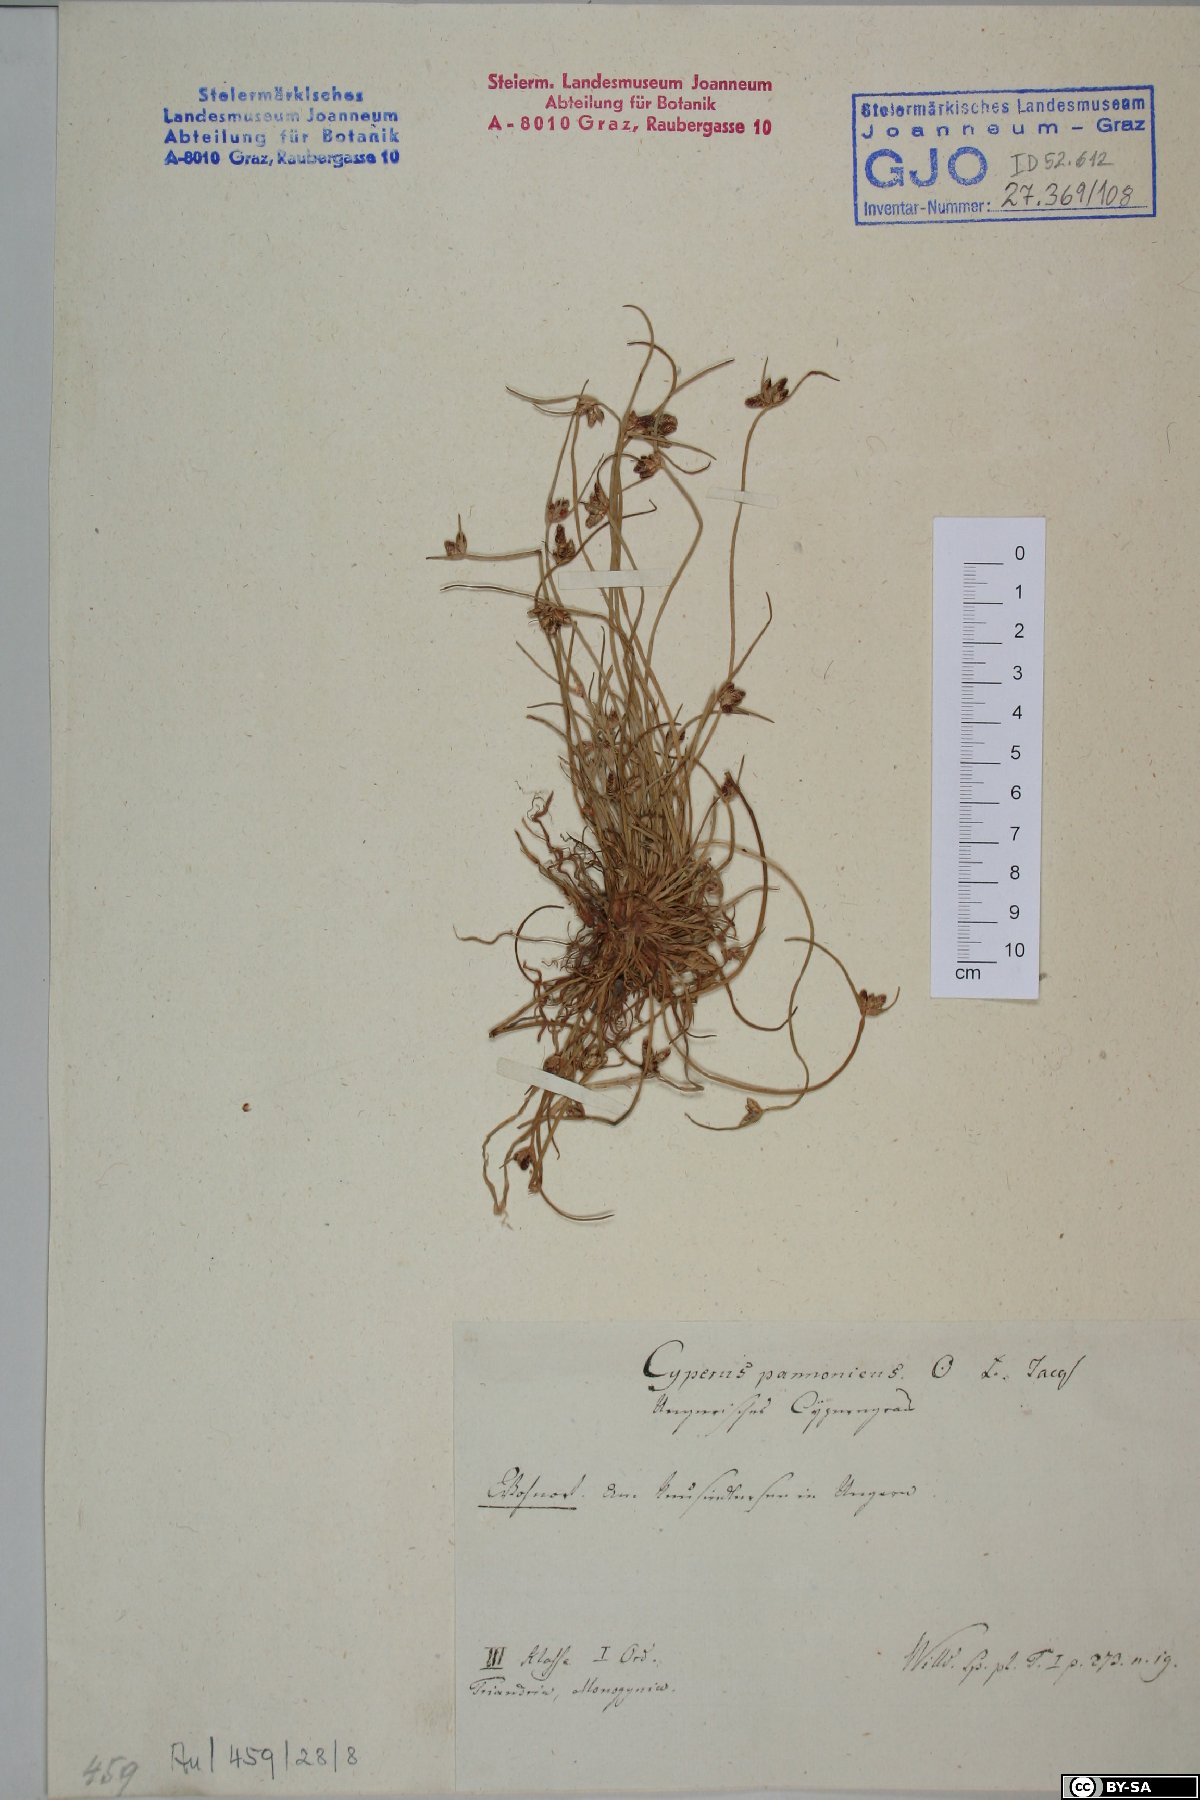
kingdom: Plantae
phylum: Tracheophyta
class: Liliopsida
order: Poales
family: Cyperaceae
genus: Cyperus
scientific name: Cyperus pannonicus
